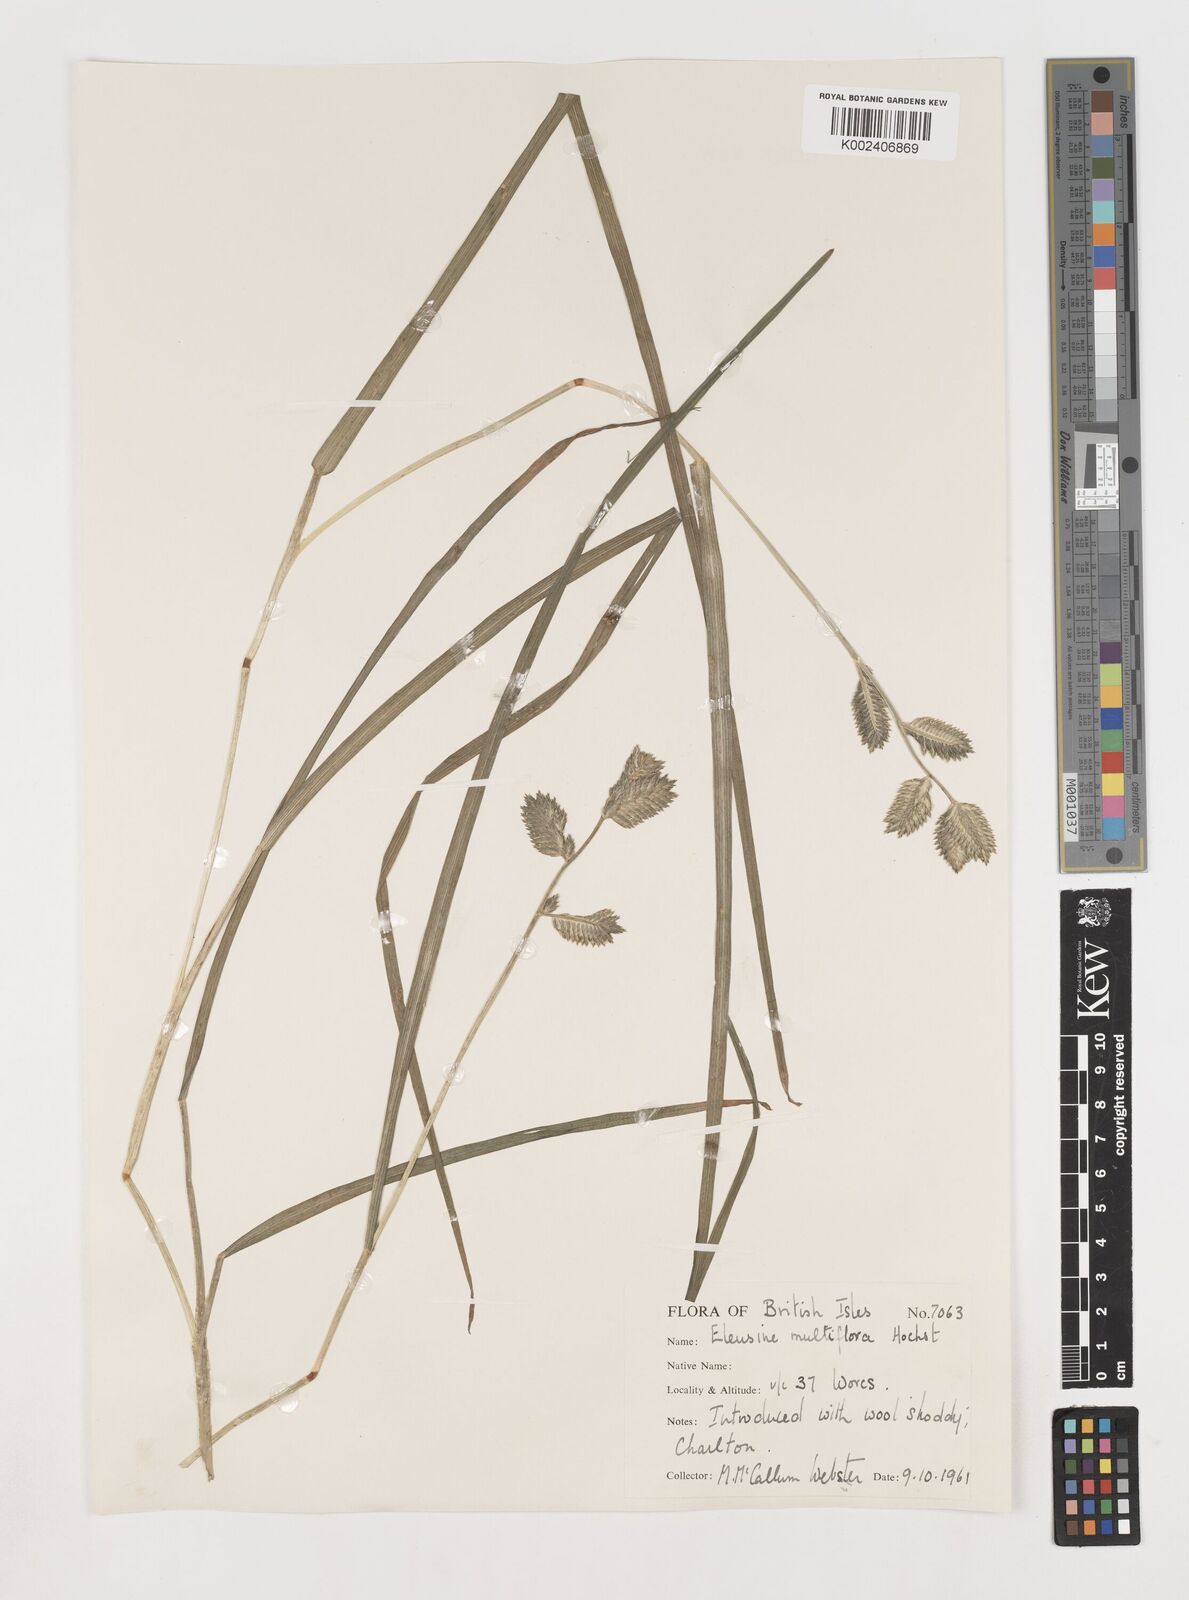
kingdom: Plantae
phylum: Tracheophyta
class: Liliopsida
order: Poales
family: Poaceae
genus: Eleusine
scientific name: Eleusine multiflora
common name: Fat-spiked yard-grass
